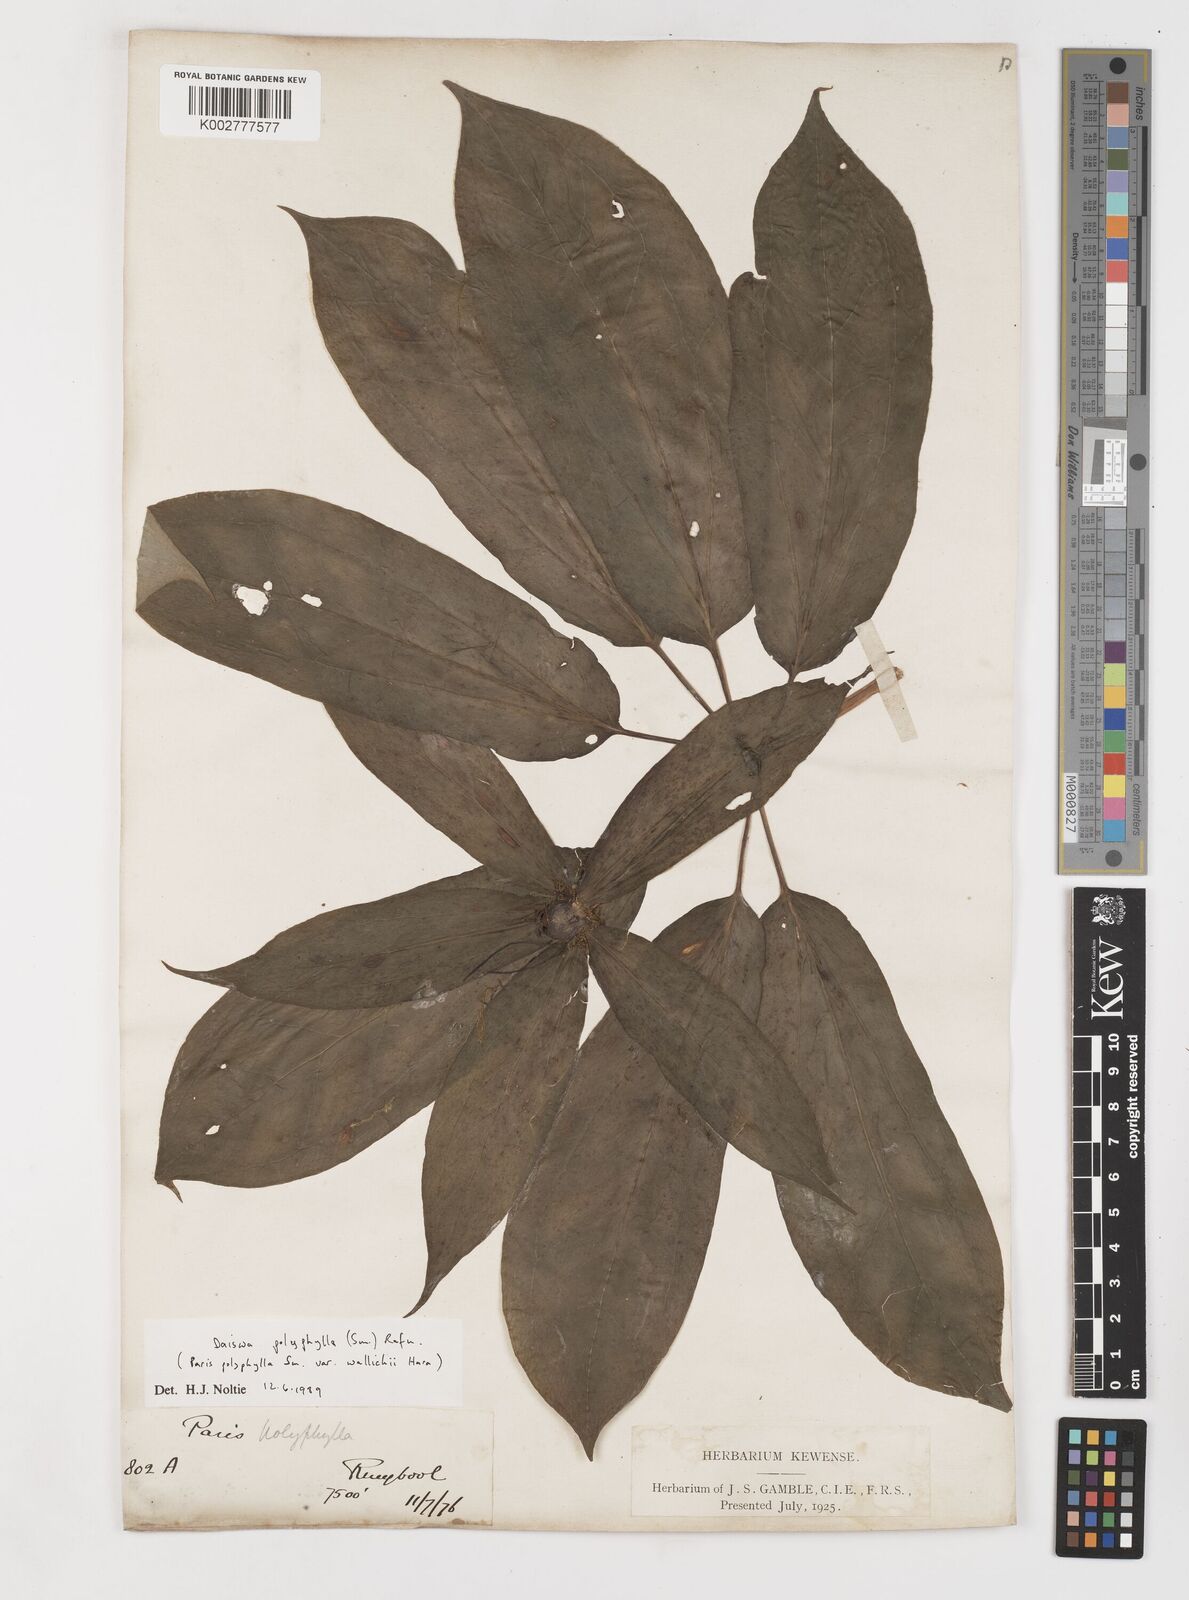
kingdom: Plantae
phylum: Tracheophyta
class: Liliopsida
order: Liliales
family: Melanthiaceae
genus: Paris
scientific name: Paris polyphylla
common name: Love apple
